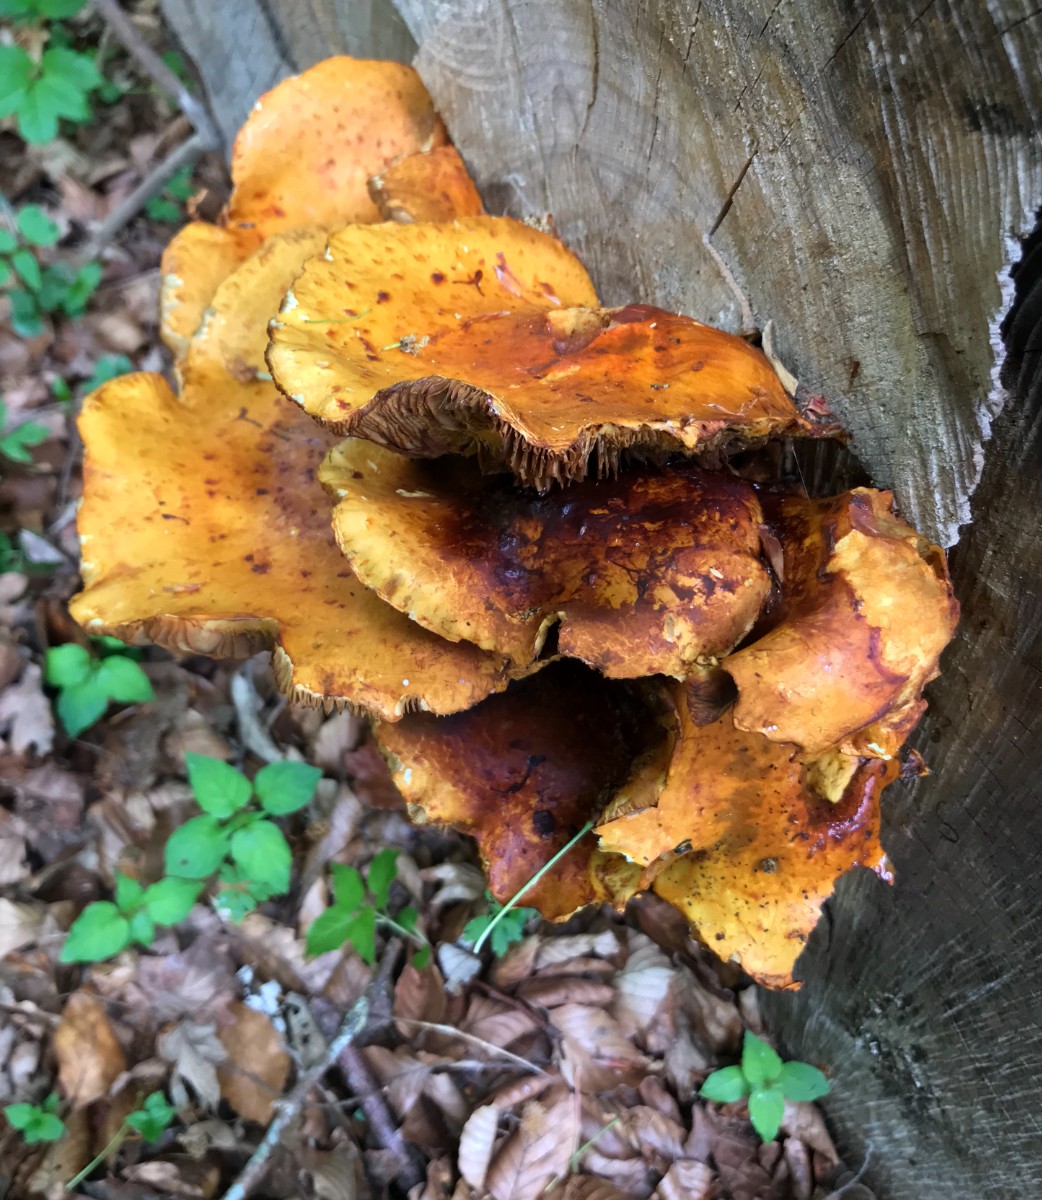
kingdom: Fungi
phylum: Basidiomycota
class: Agaricomycetes
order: Agaricales
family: Strophariaceae
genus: Pholiota
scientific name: Pholiota adiposa
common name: højtsiddende skælhat
